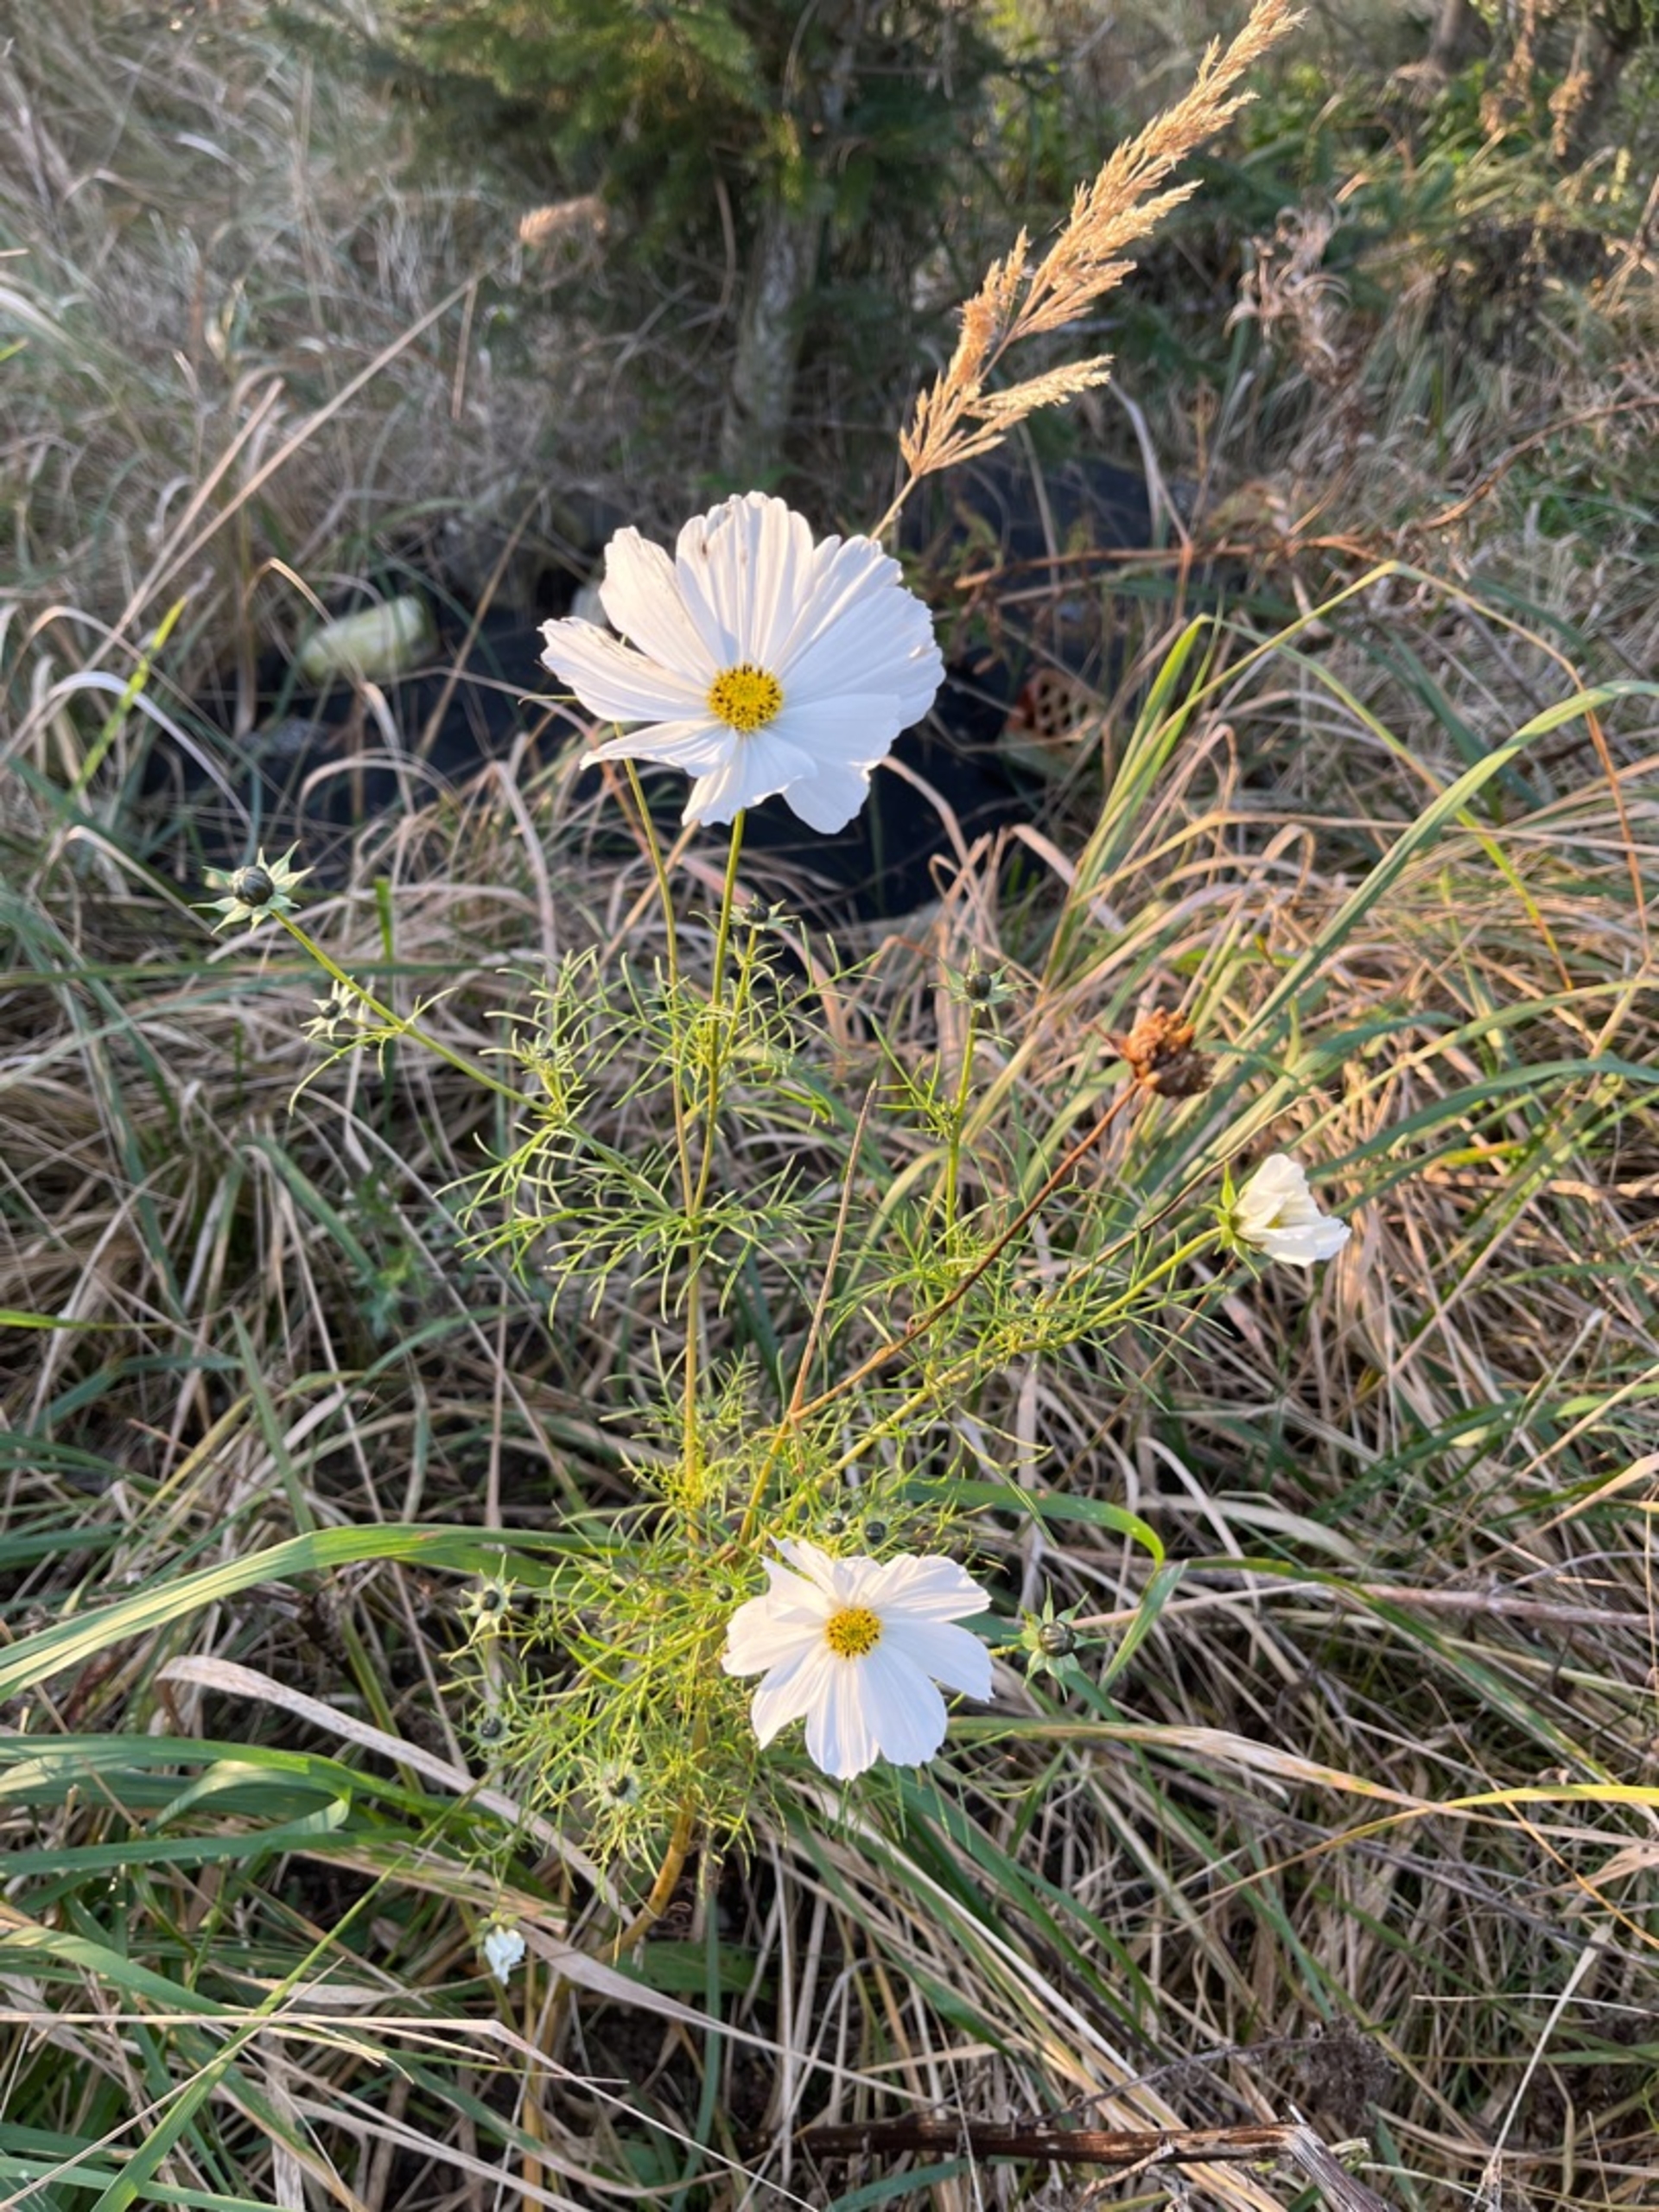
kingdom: Plantae
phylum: Tracheophyta
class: Magnoliopsida
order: Asterales
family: Asteraceae
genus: Cosmos
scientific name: Cosmos bipinnatus
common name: Stolt kavaler
